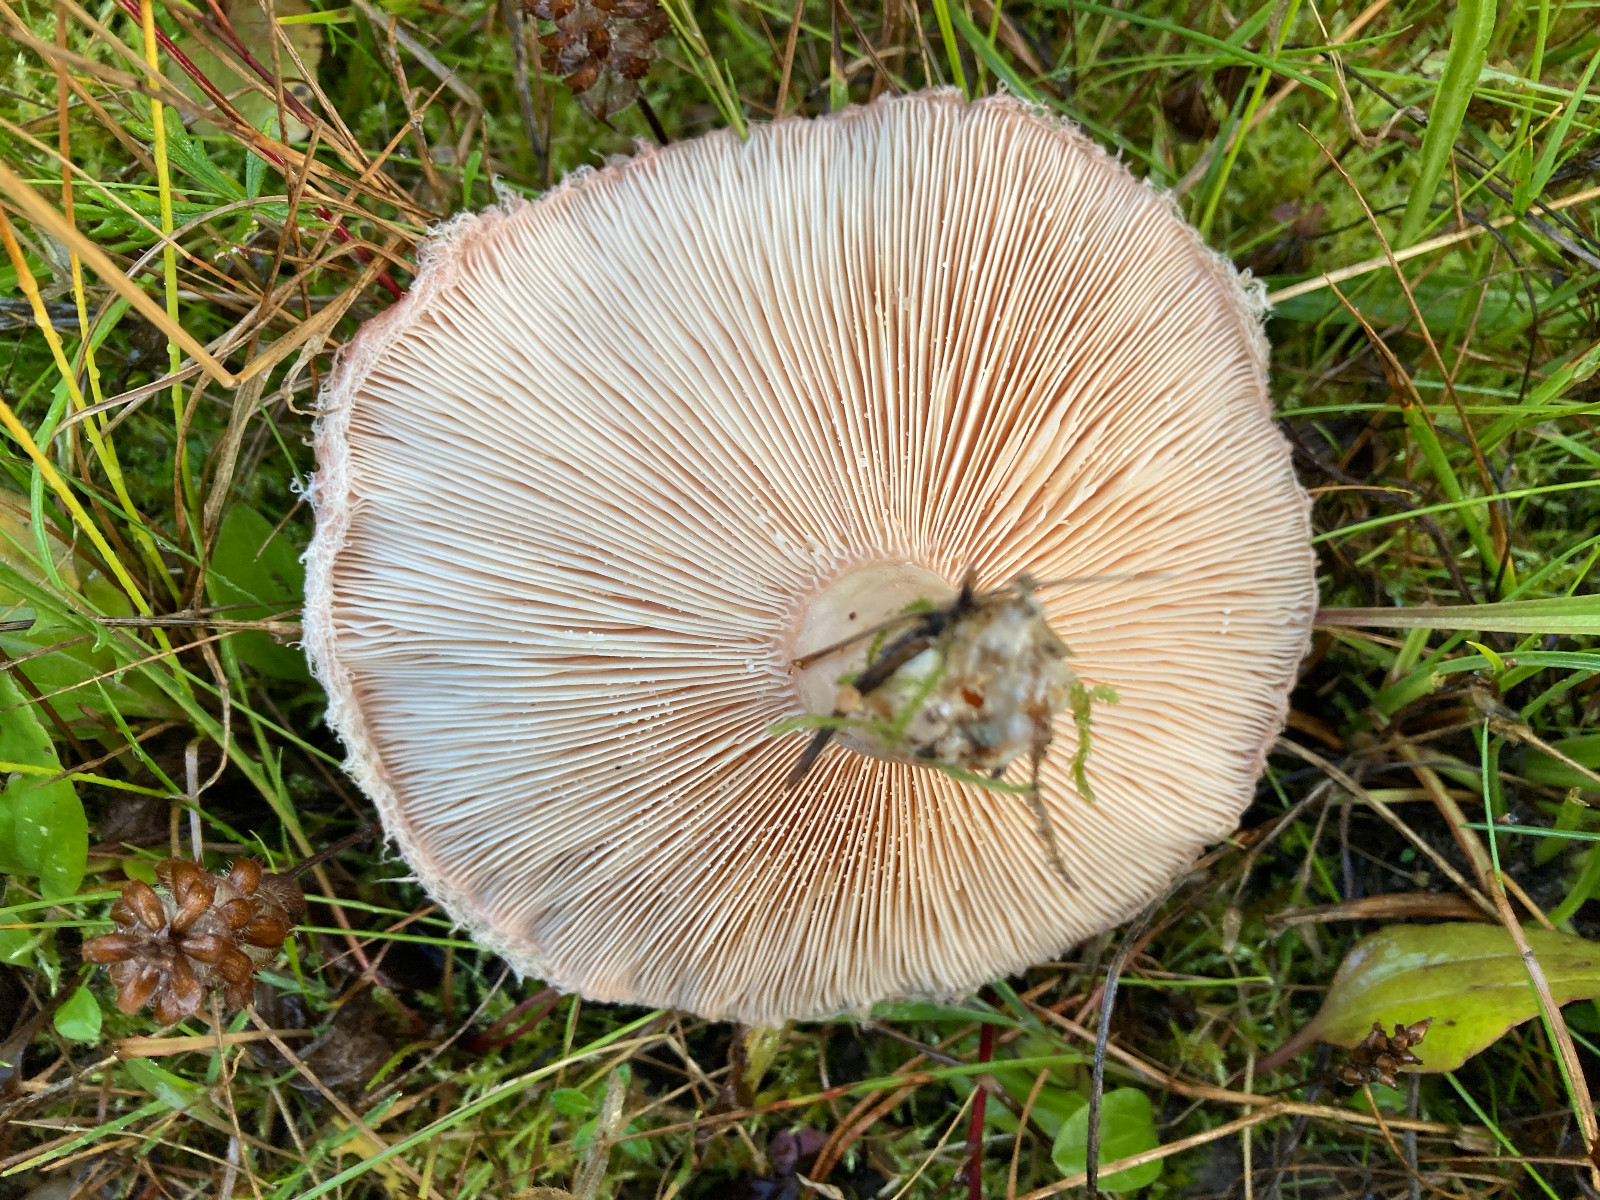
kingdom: Fungi
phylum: Basidiomycota
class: Agaricomycetes
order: Russulales
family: Russulaceae
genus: Lactarius
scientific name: Lactarius torminosus
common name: skægget mælkehat
